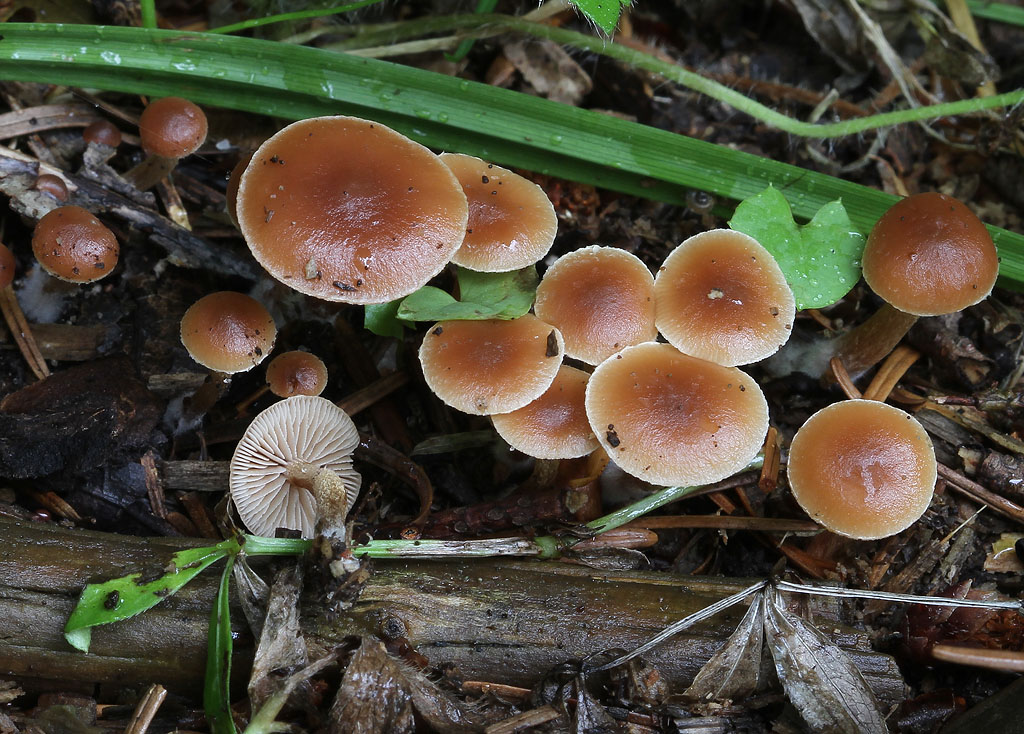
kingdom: Fungi
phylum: Basidiomycota
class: Agaricomycetes
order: Agaricales
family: Strophariaceae
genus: Deconica
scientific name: Deconica crobula
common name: træflis-stråhat
